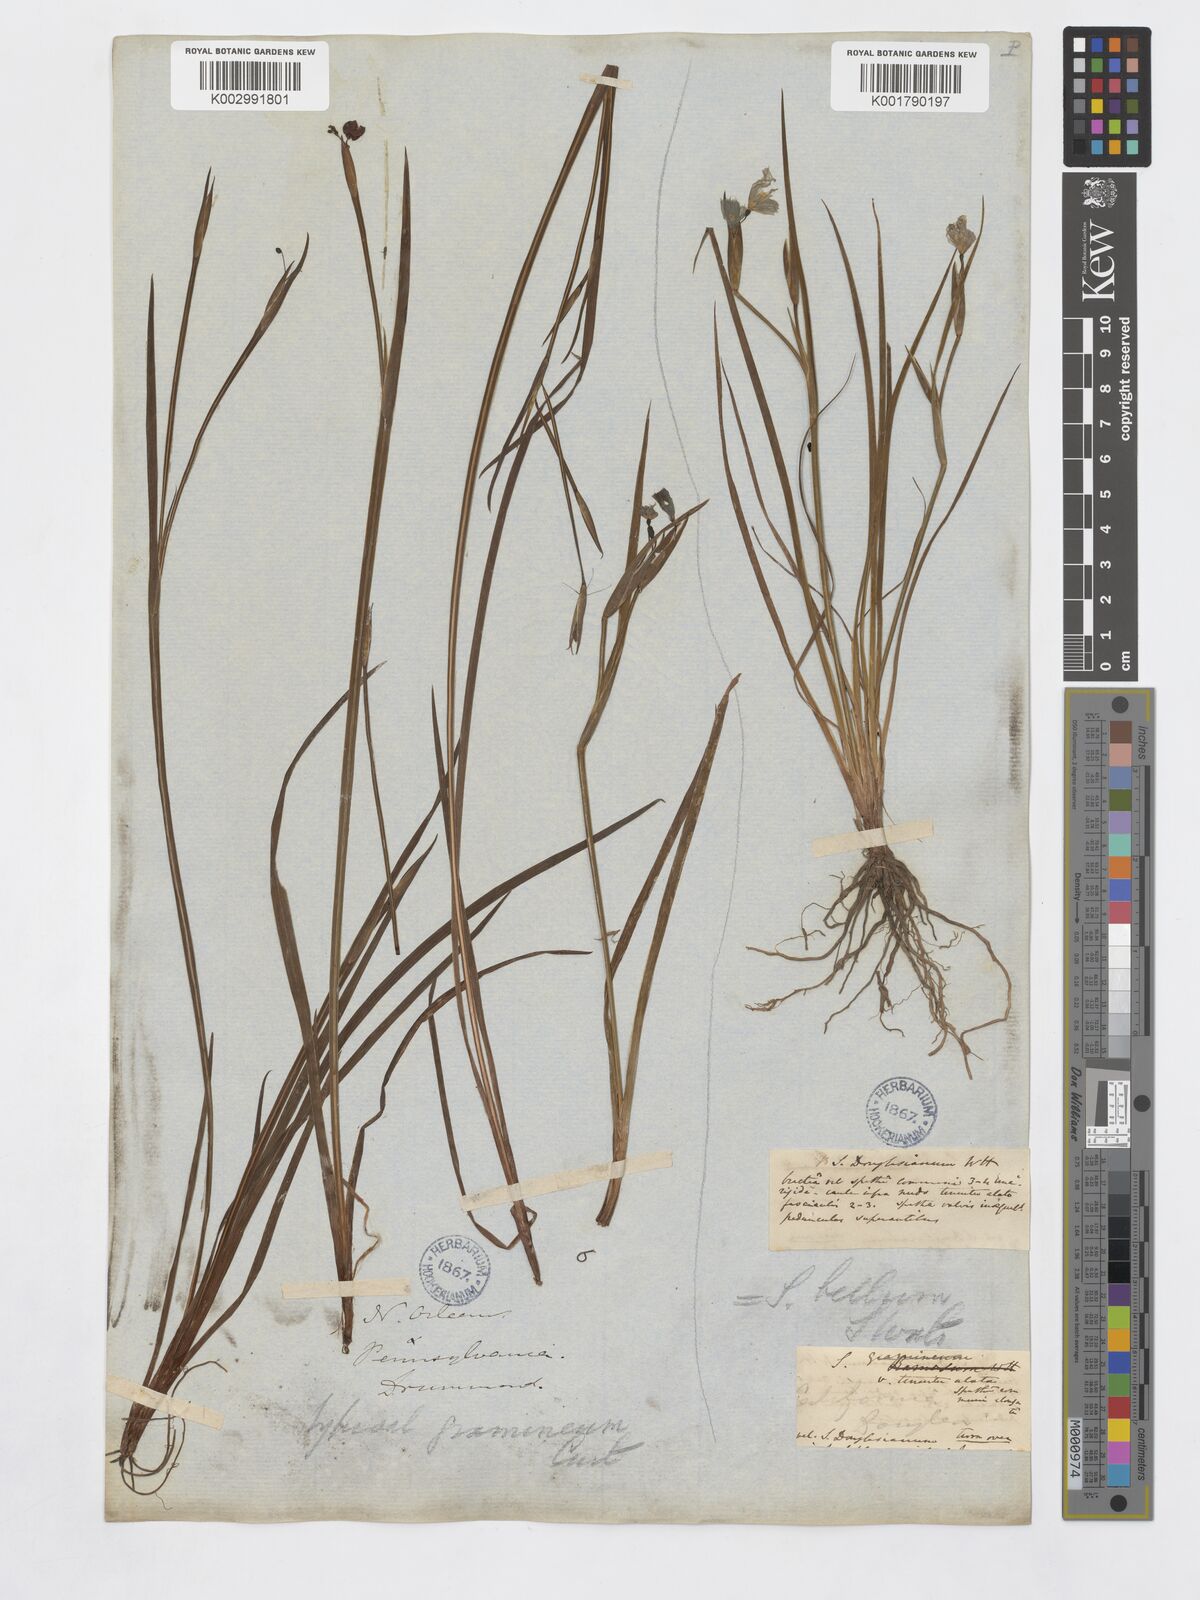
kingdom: Plantae
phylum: Tracheophyta
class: Liliopsida
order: Asparagales
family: Iridaceae
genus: Sisyrinchium
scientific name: Sisyrinchium bellum
